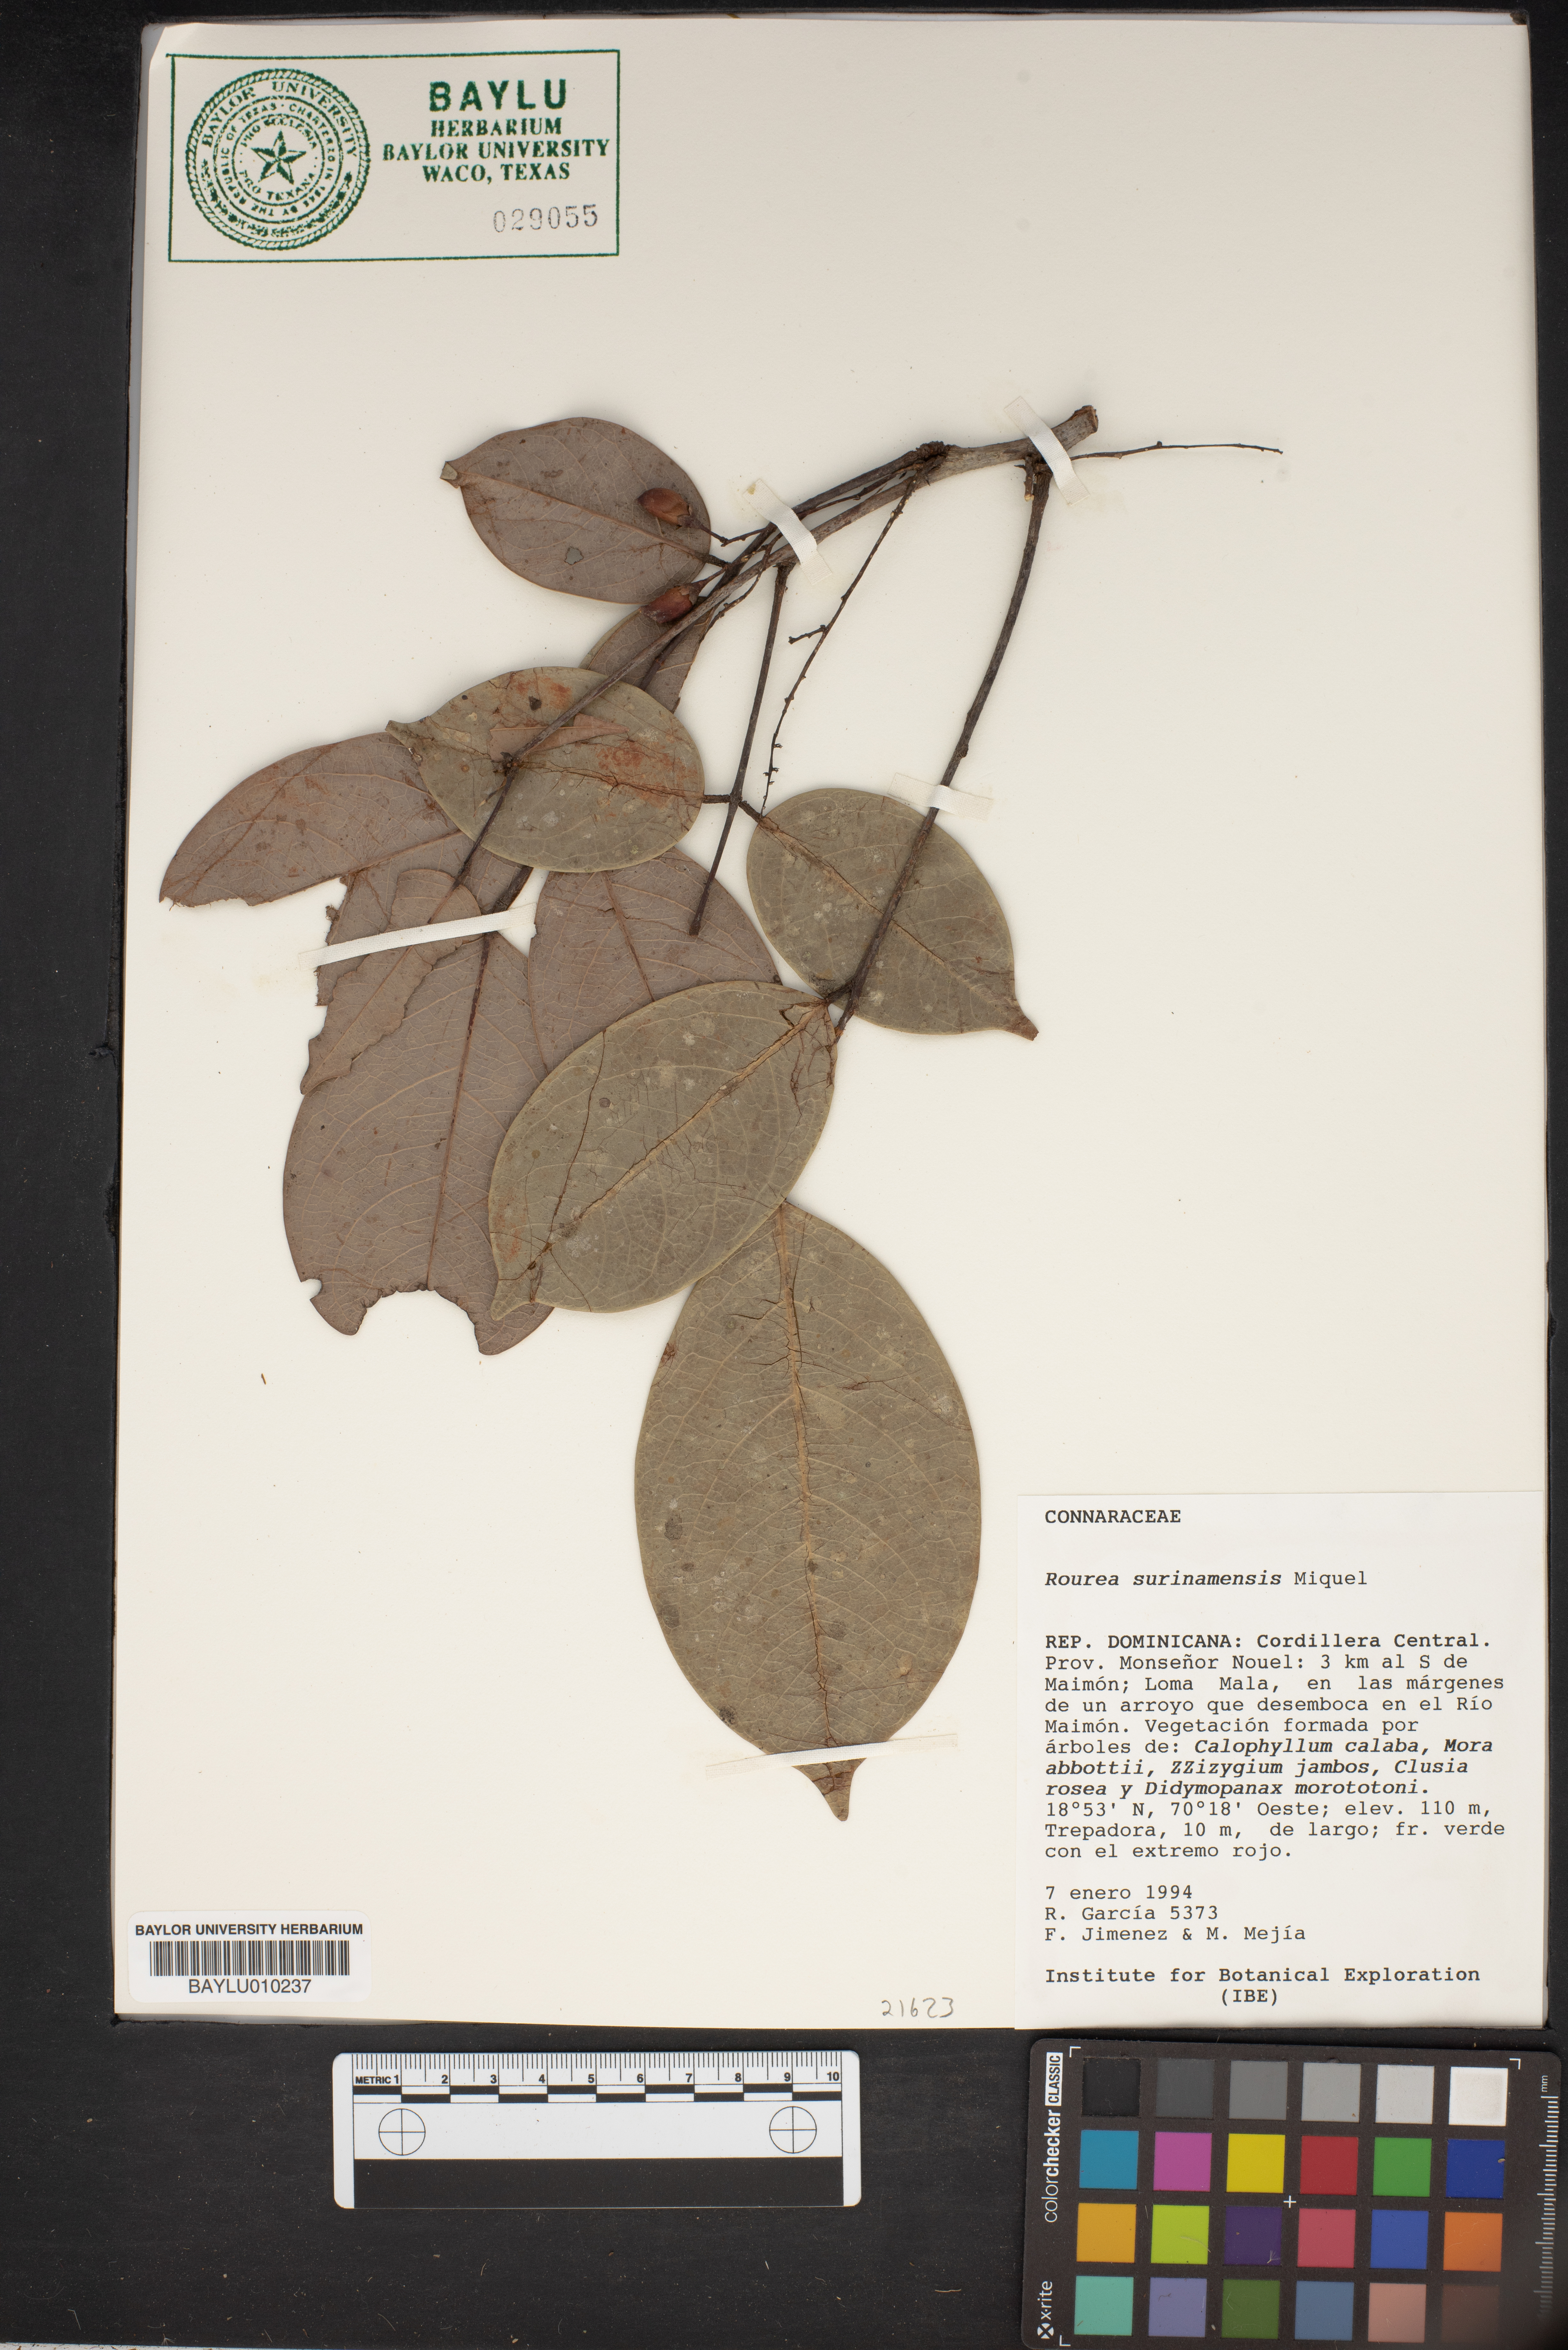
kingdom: Plantae
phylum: Tracheophyta
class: Magnoliopsida
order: Oxalidales
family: Connaraceae
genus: Rourea
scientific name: Rourea surinamensis
